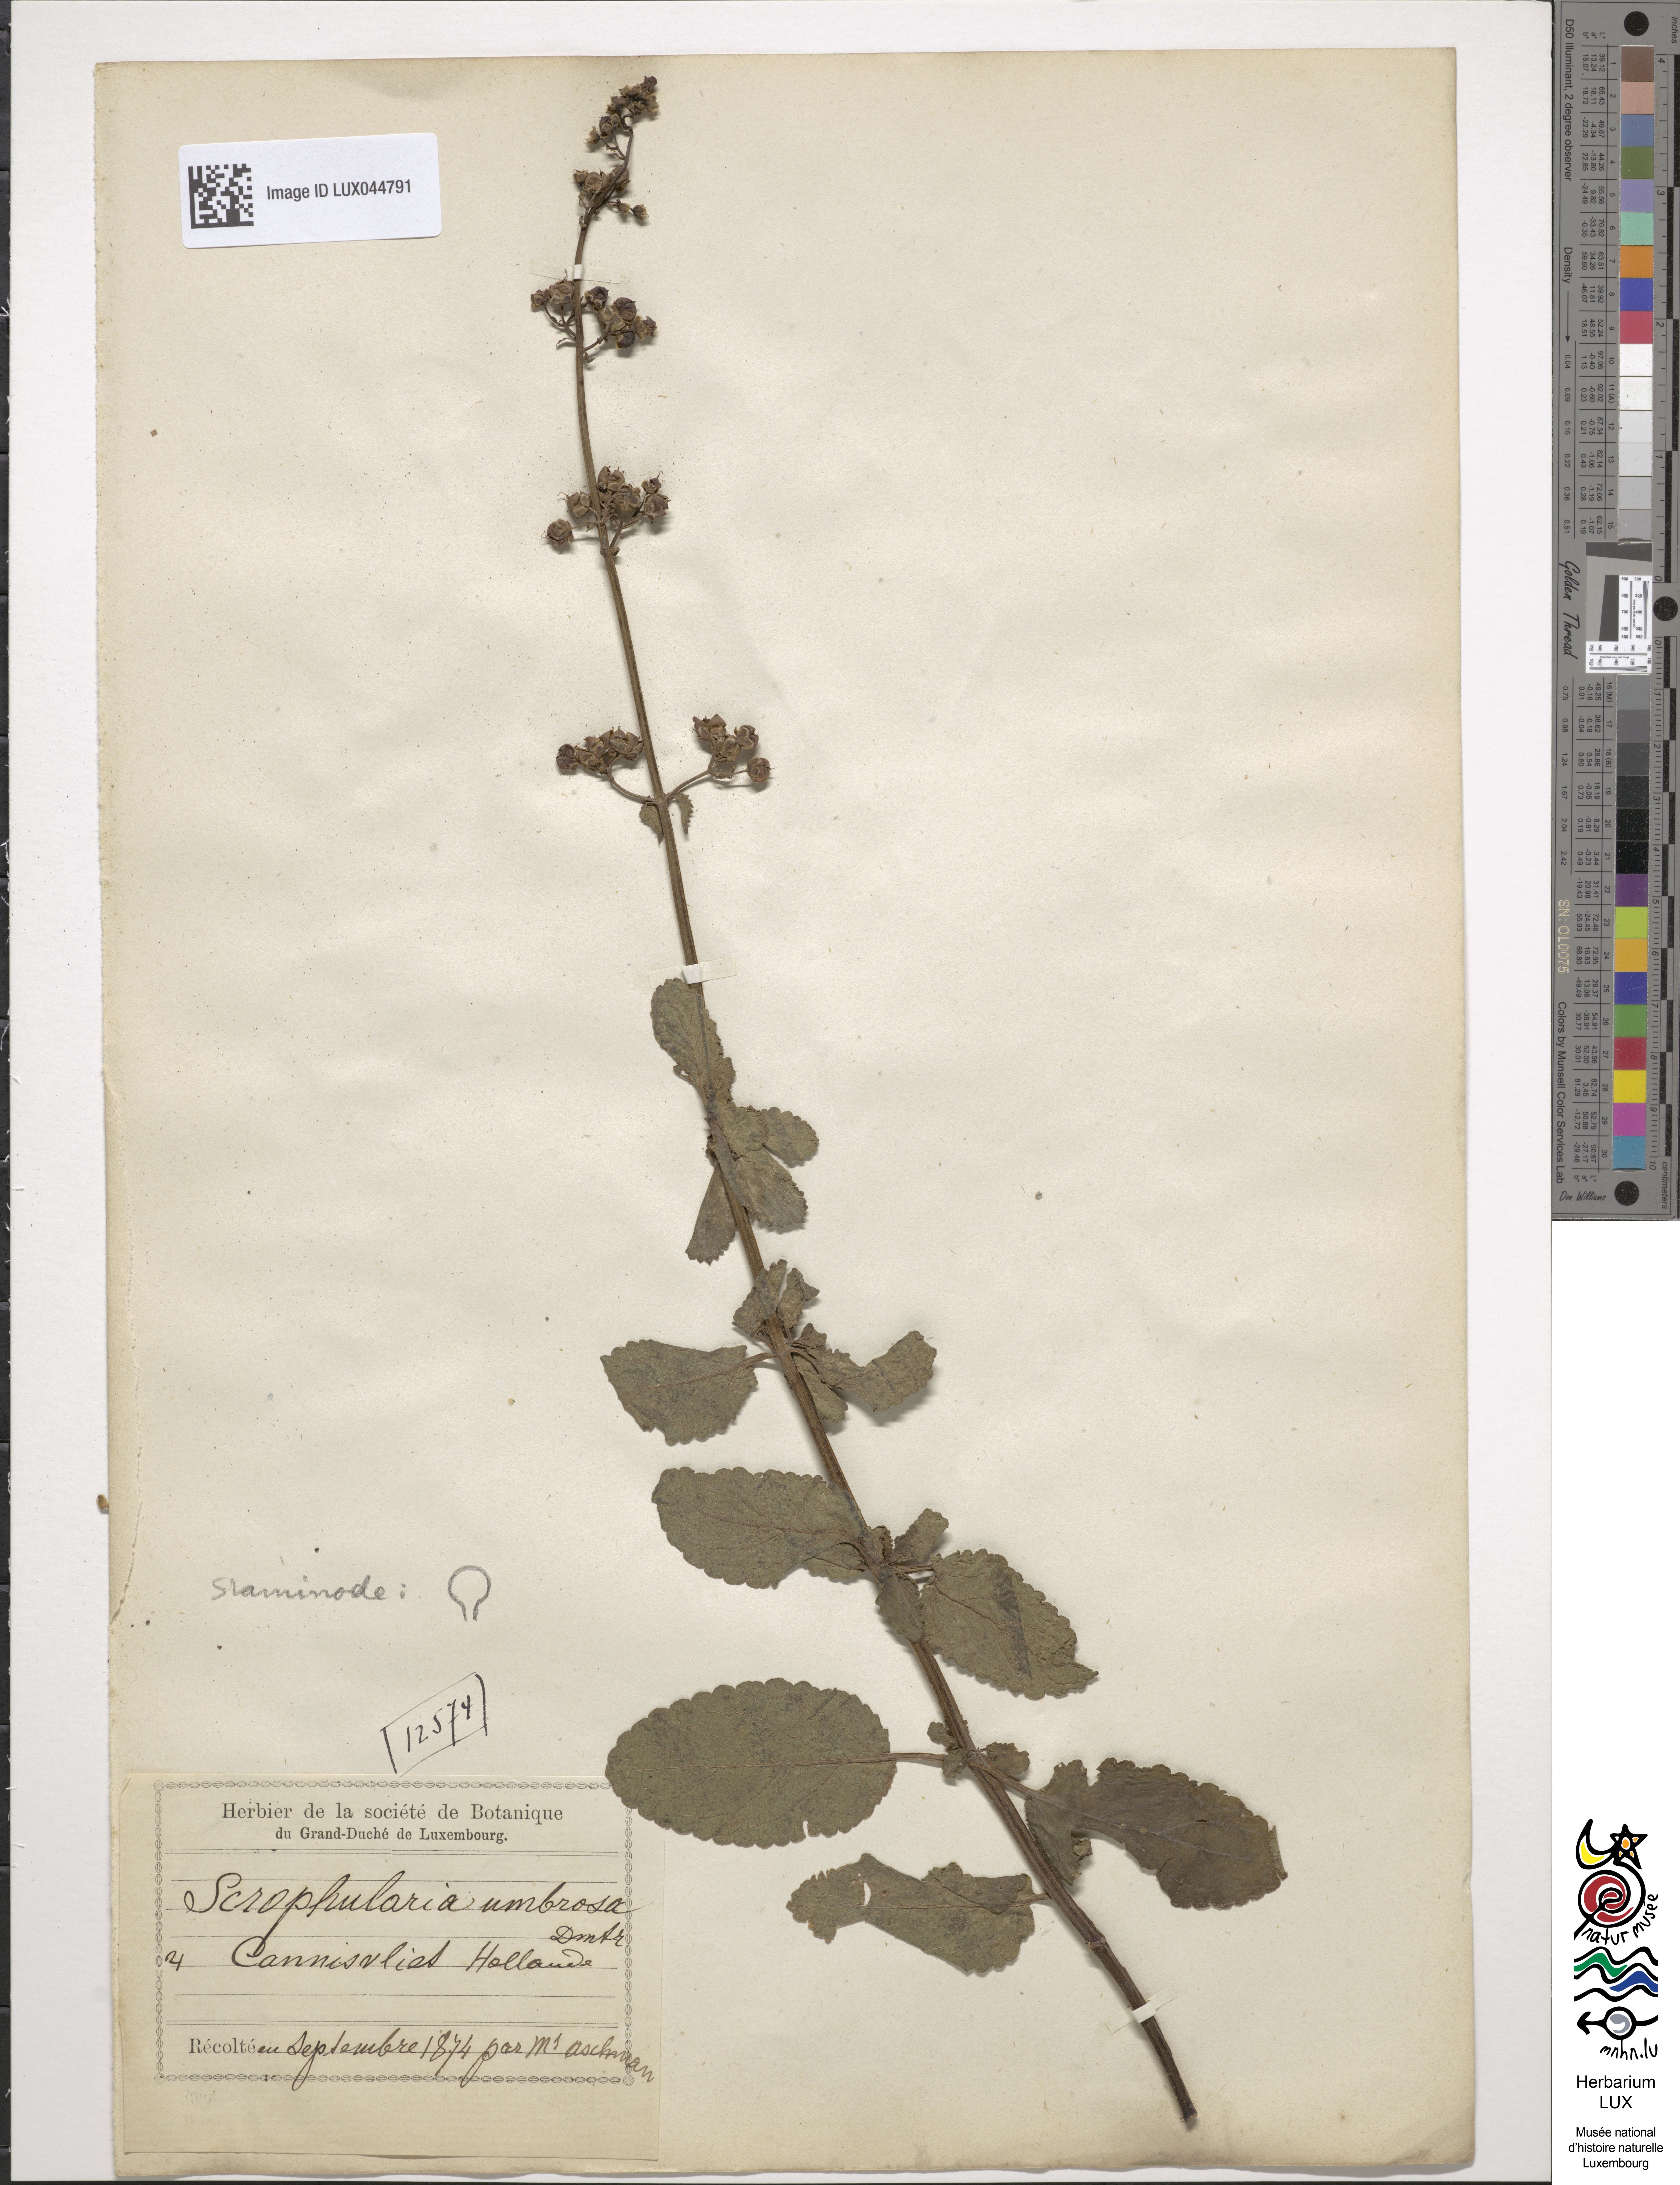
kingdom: Plantae
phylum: Tracheophyta
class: Magnoliopsida
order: Lamiales
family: Scrophulariaceae
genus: Scrophularia
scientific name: Scrophularia umbrosa
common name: Green figwort
